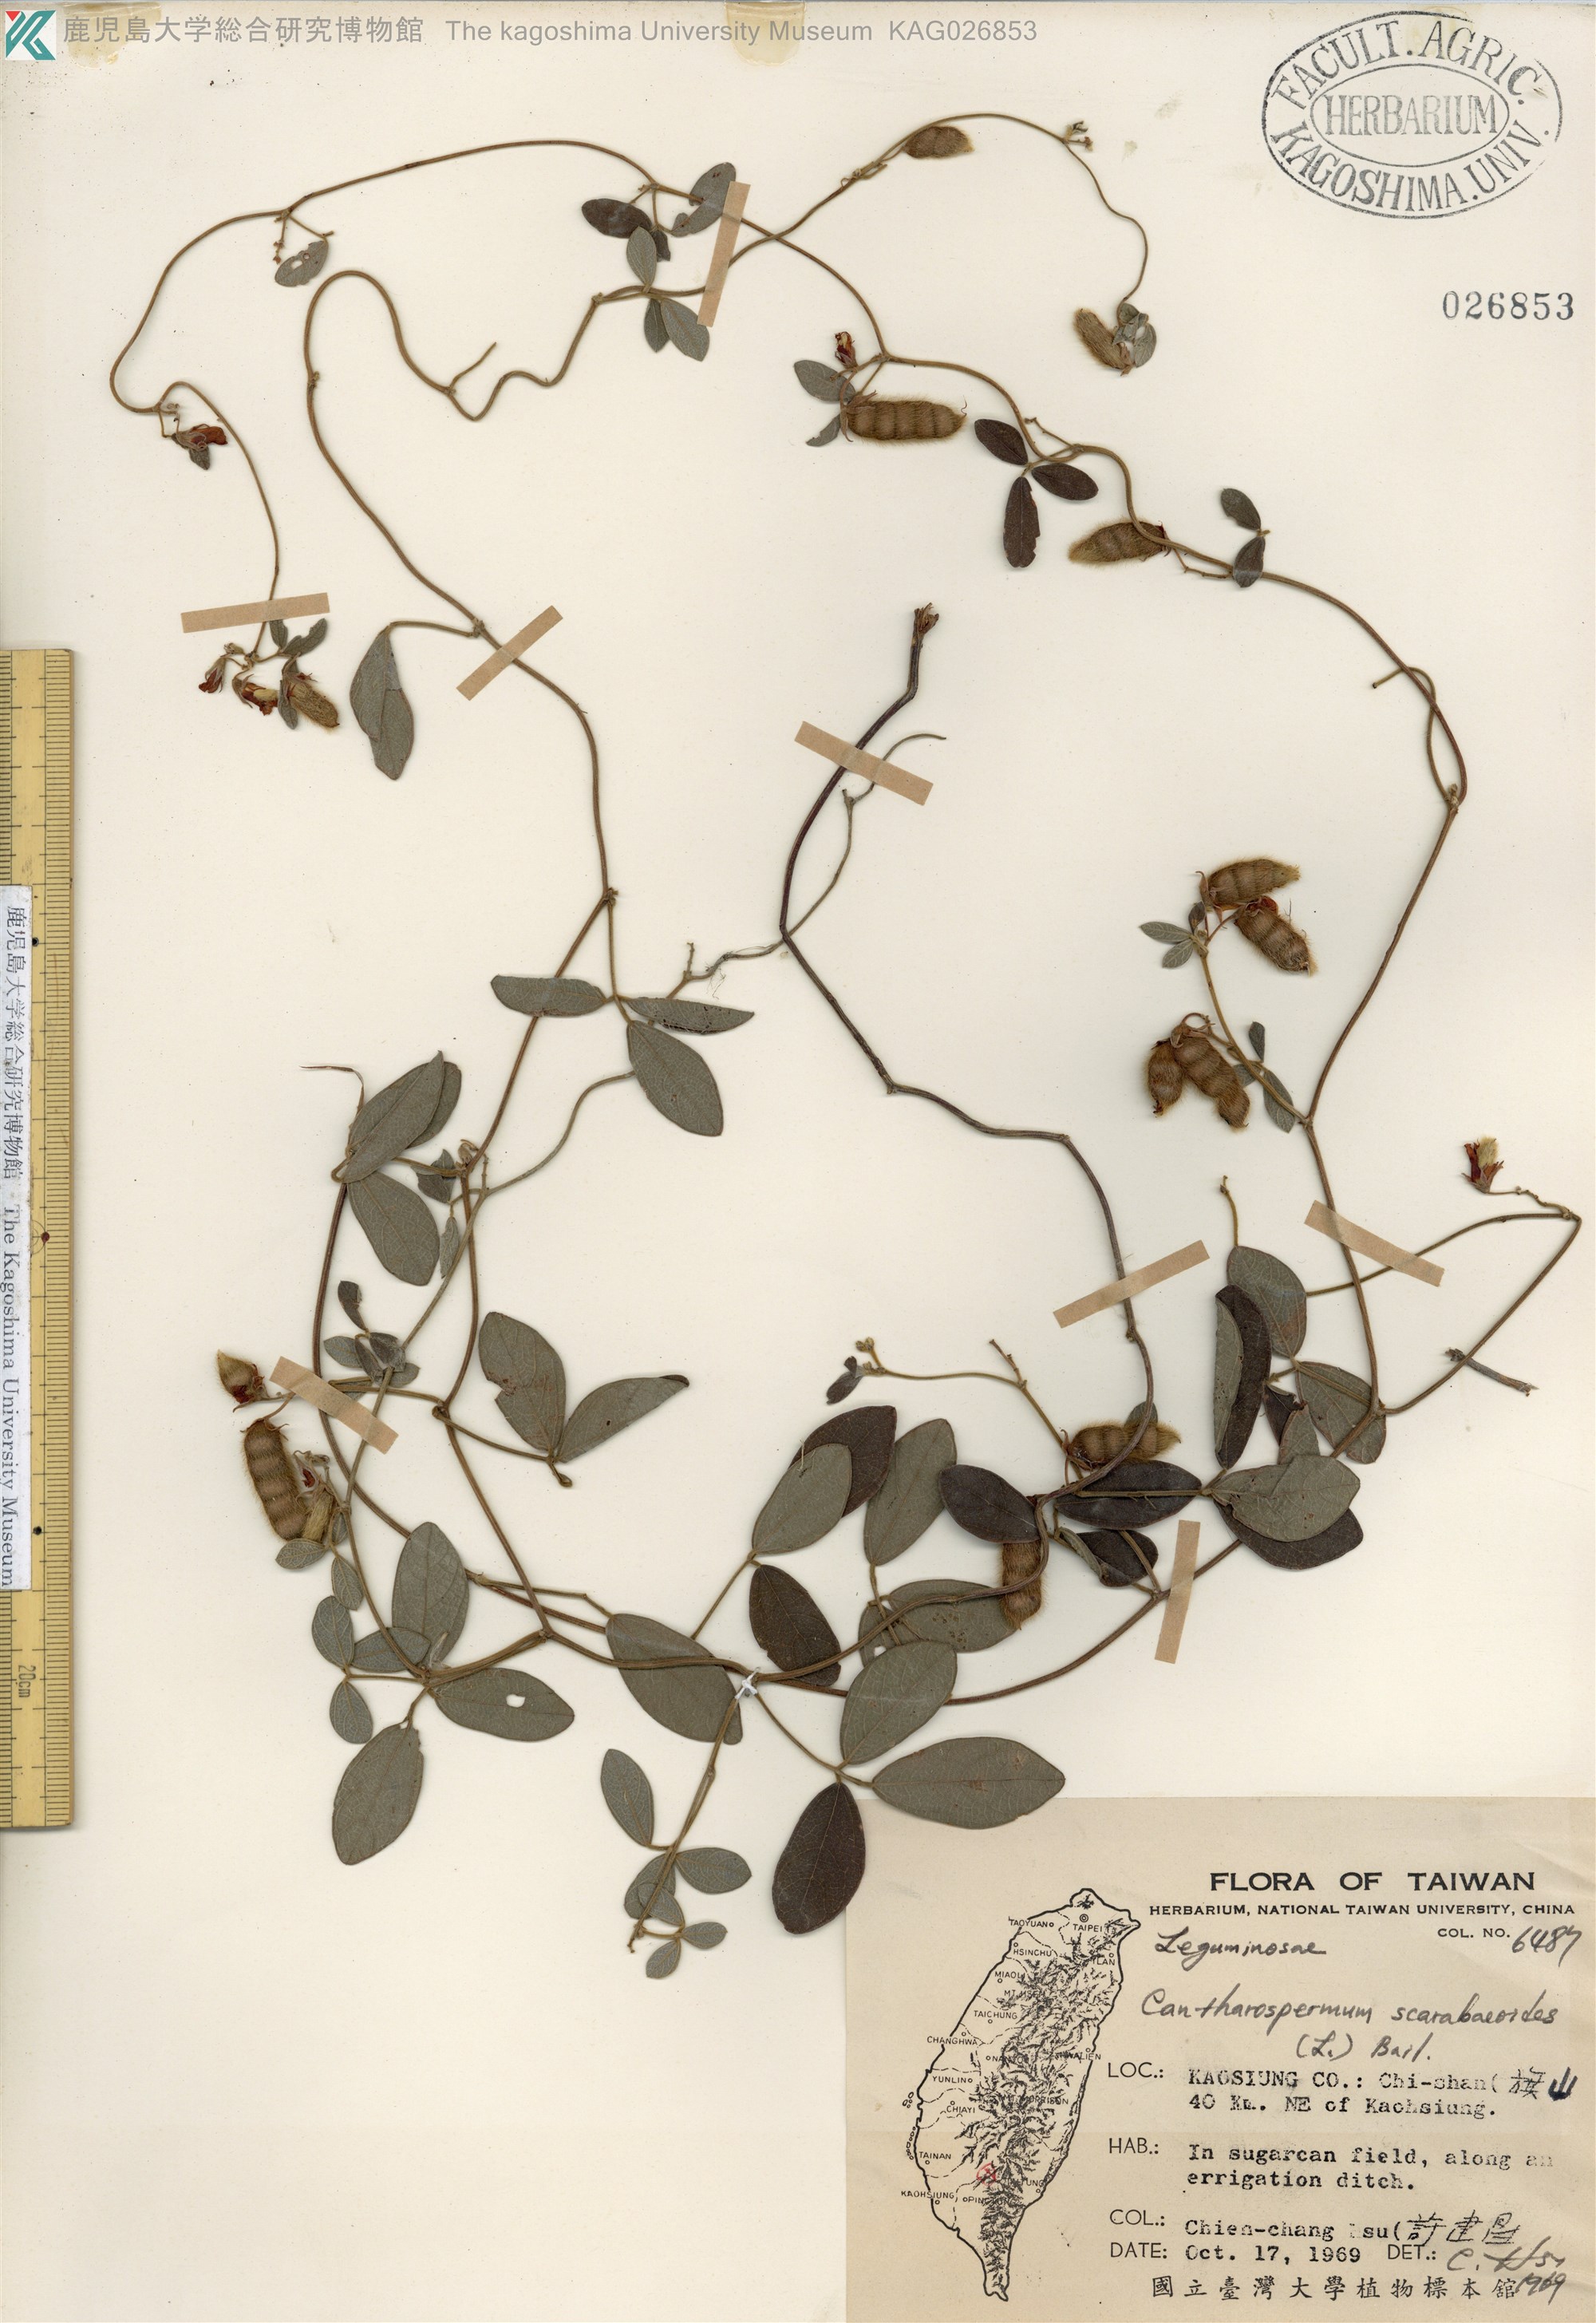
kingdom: Plantae
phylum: Tracheophyta
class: Magnoliopsida
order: Fabales
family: Fabaceae
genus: Cajanus
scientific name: Cajanus scarabaeoides
